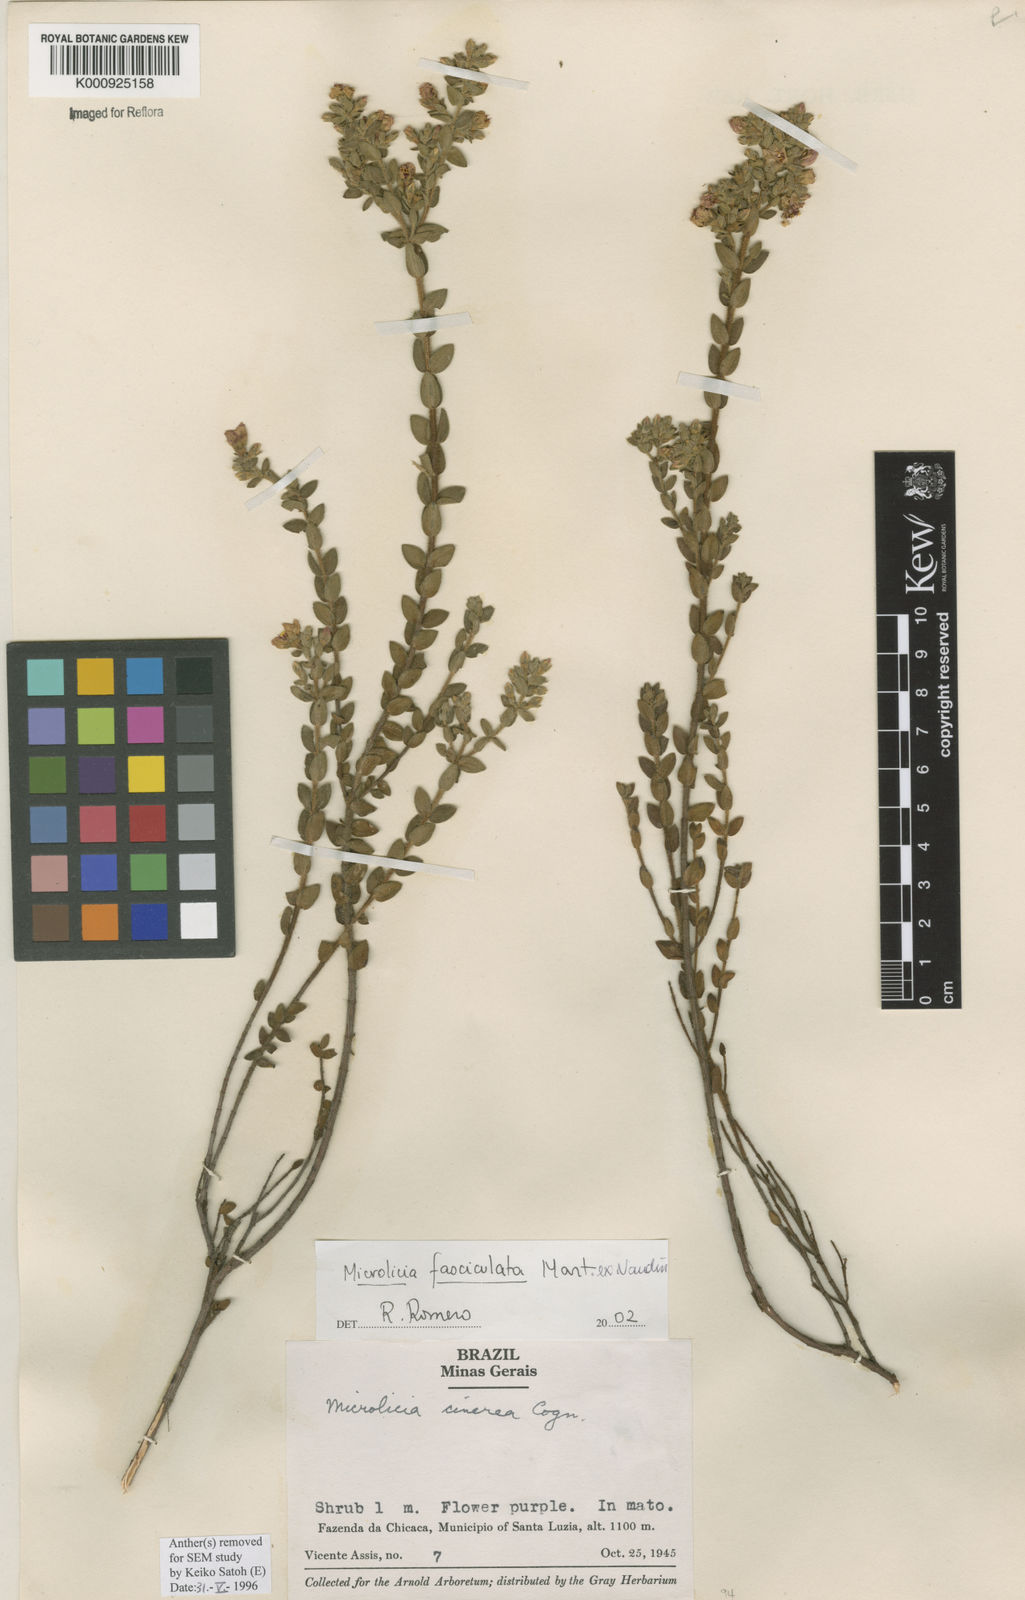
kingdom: Plantae
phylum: Tracheophyta
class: Magnoliopsida
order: Myrtales
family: Melastomataceae
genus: Microlicia
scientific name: Microlicia fasciculata
